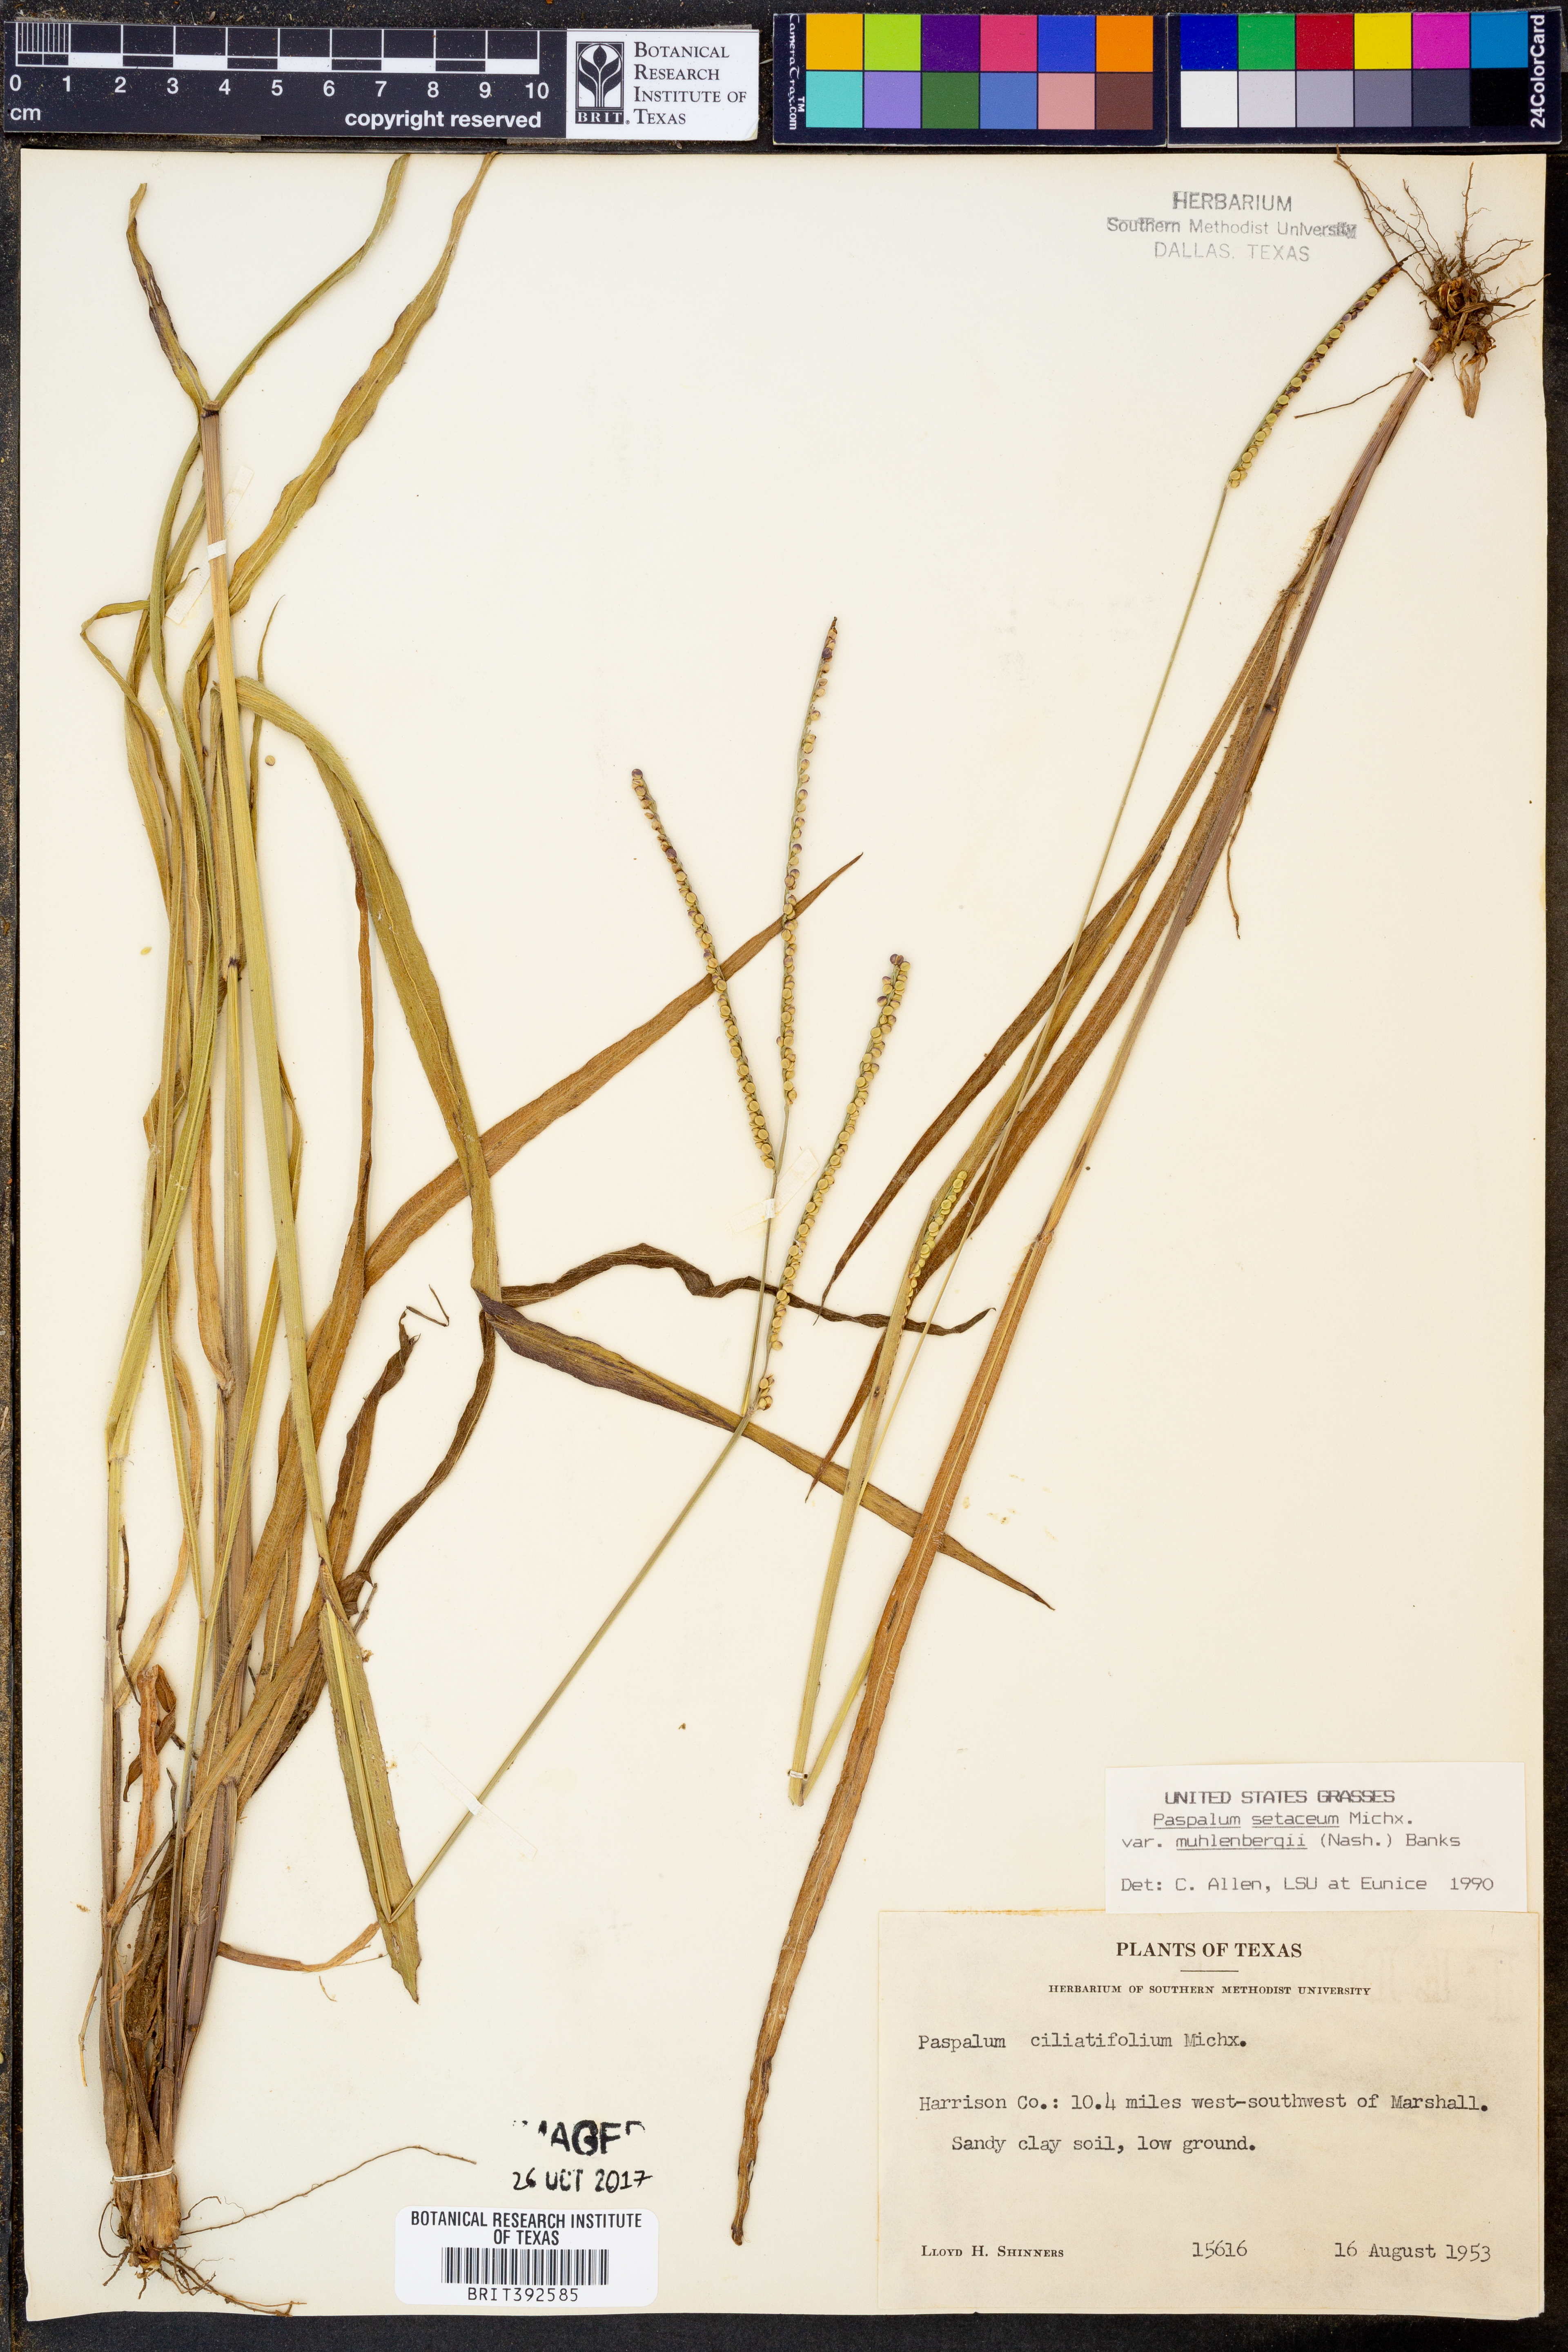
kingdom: Plantae
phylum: Tracheophyta
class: Liliopsida
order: Poales
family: Poaceae
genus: Paspalum
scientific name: Paspalum setaceum
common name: Slender paspalum
